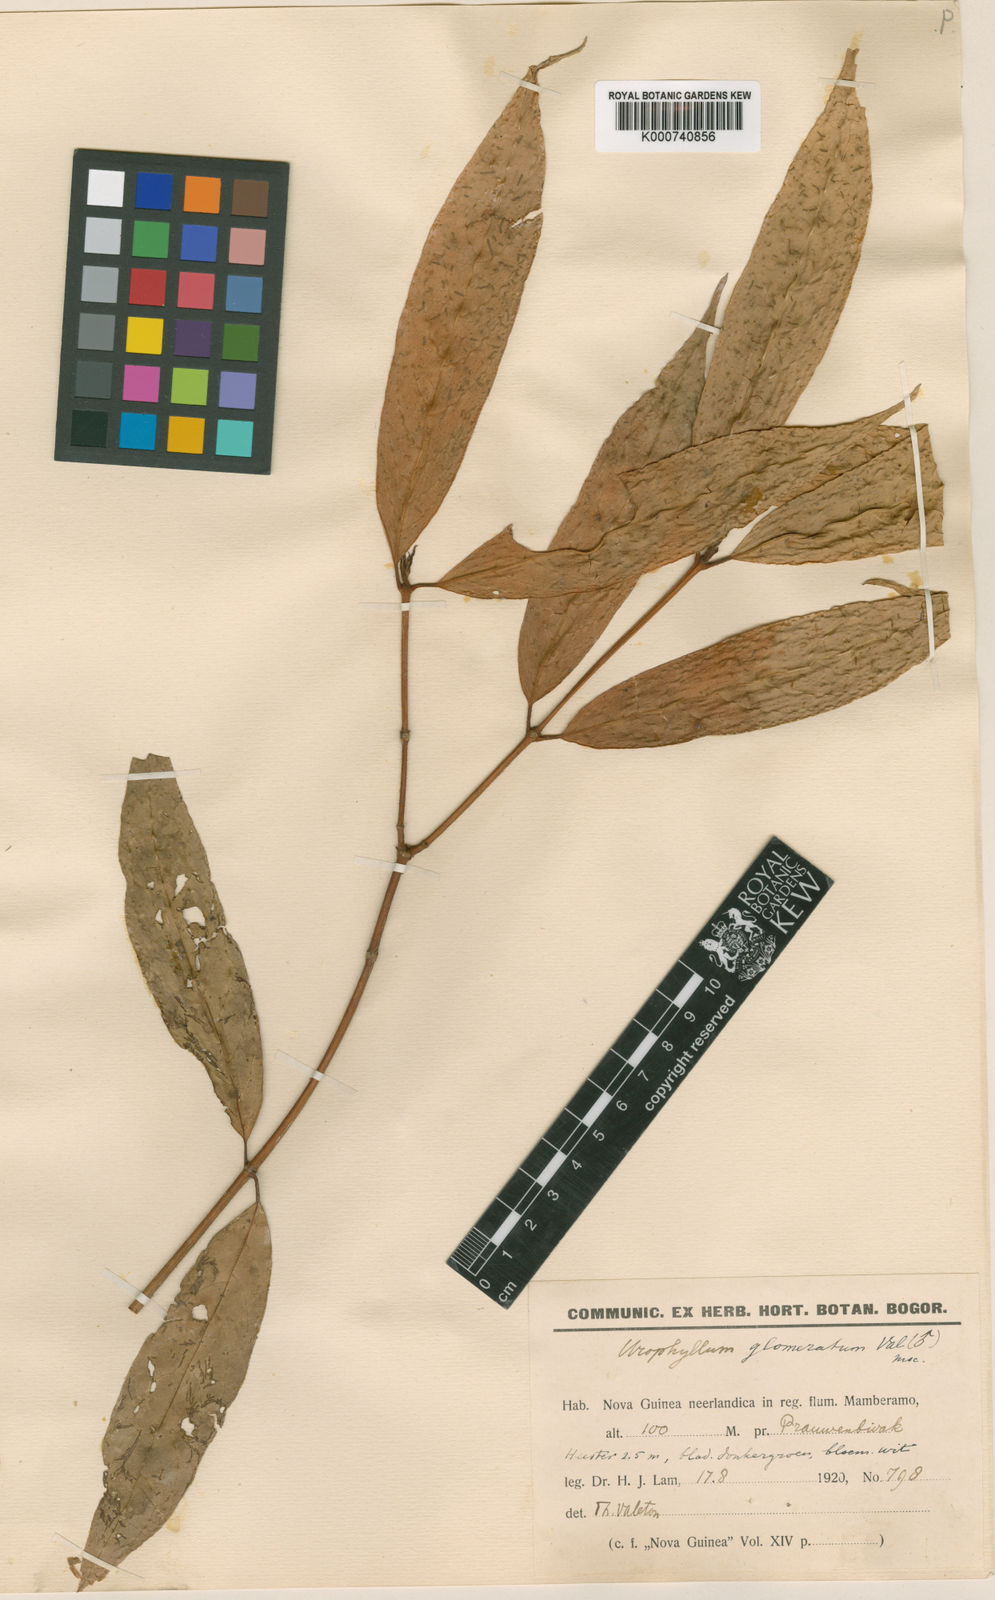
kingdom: Plantae
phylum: Tracheophyta
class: Magnoliopsida
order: Gentianales
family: Rubiaceae
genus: Urophyllum
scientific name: Urophyllum glomeratum
